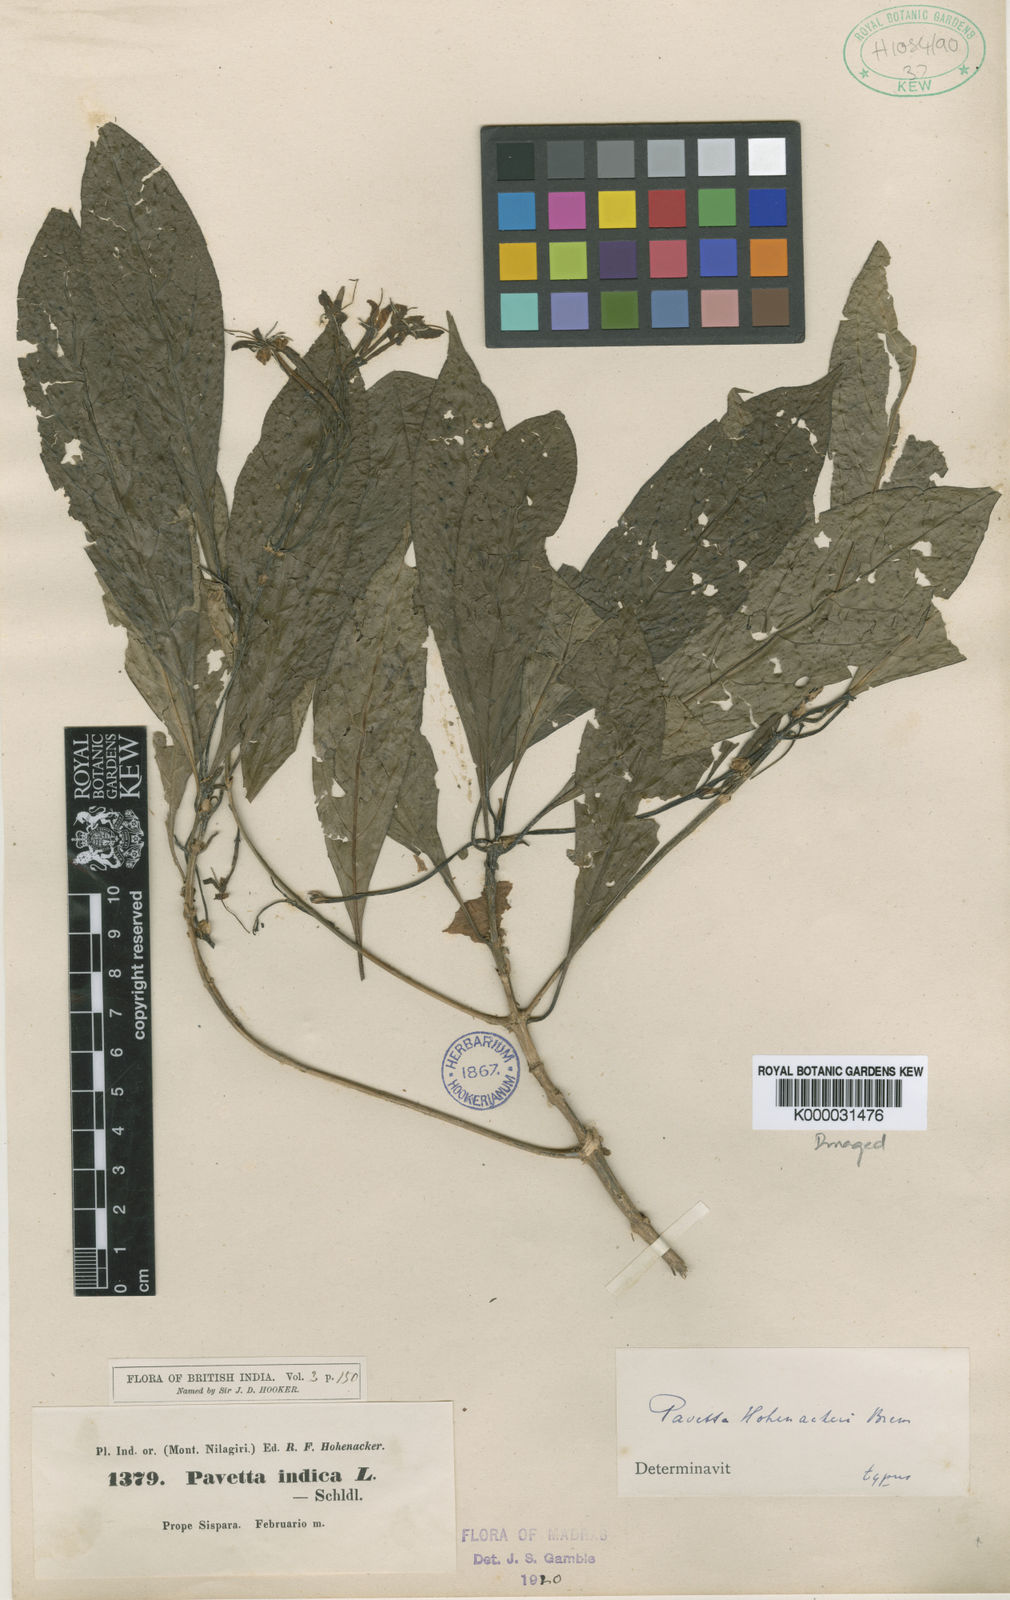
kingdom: Plantae
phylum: Tracheophyta
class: Magnoliopsida
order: Gentianales
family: Rubiaceae
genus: Pavetta
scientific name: Pavetta hohenackeri
